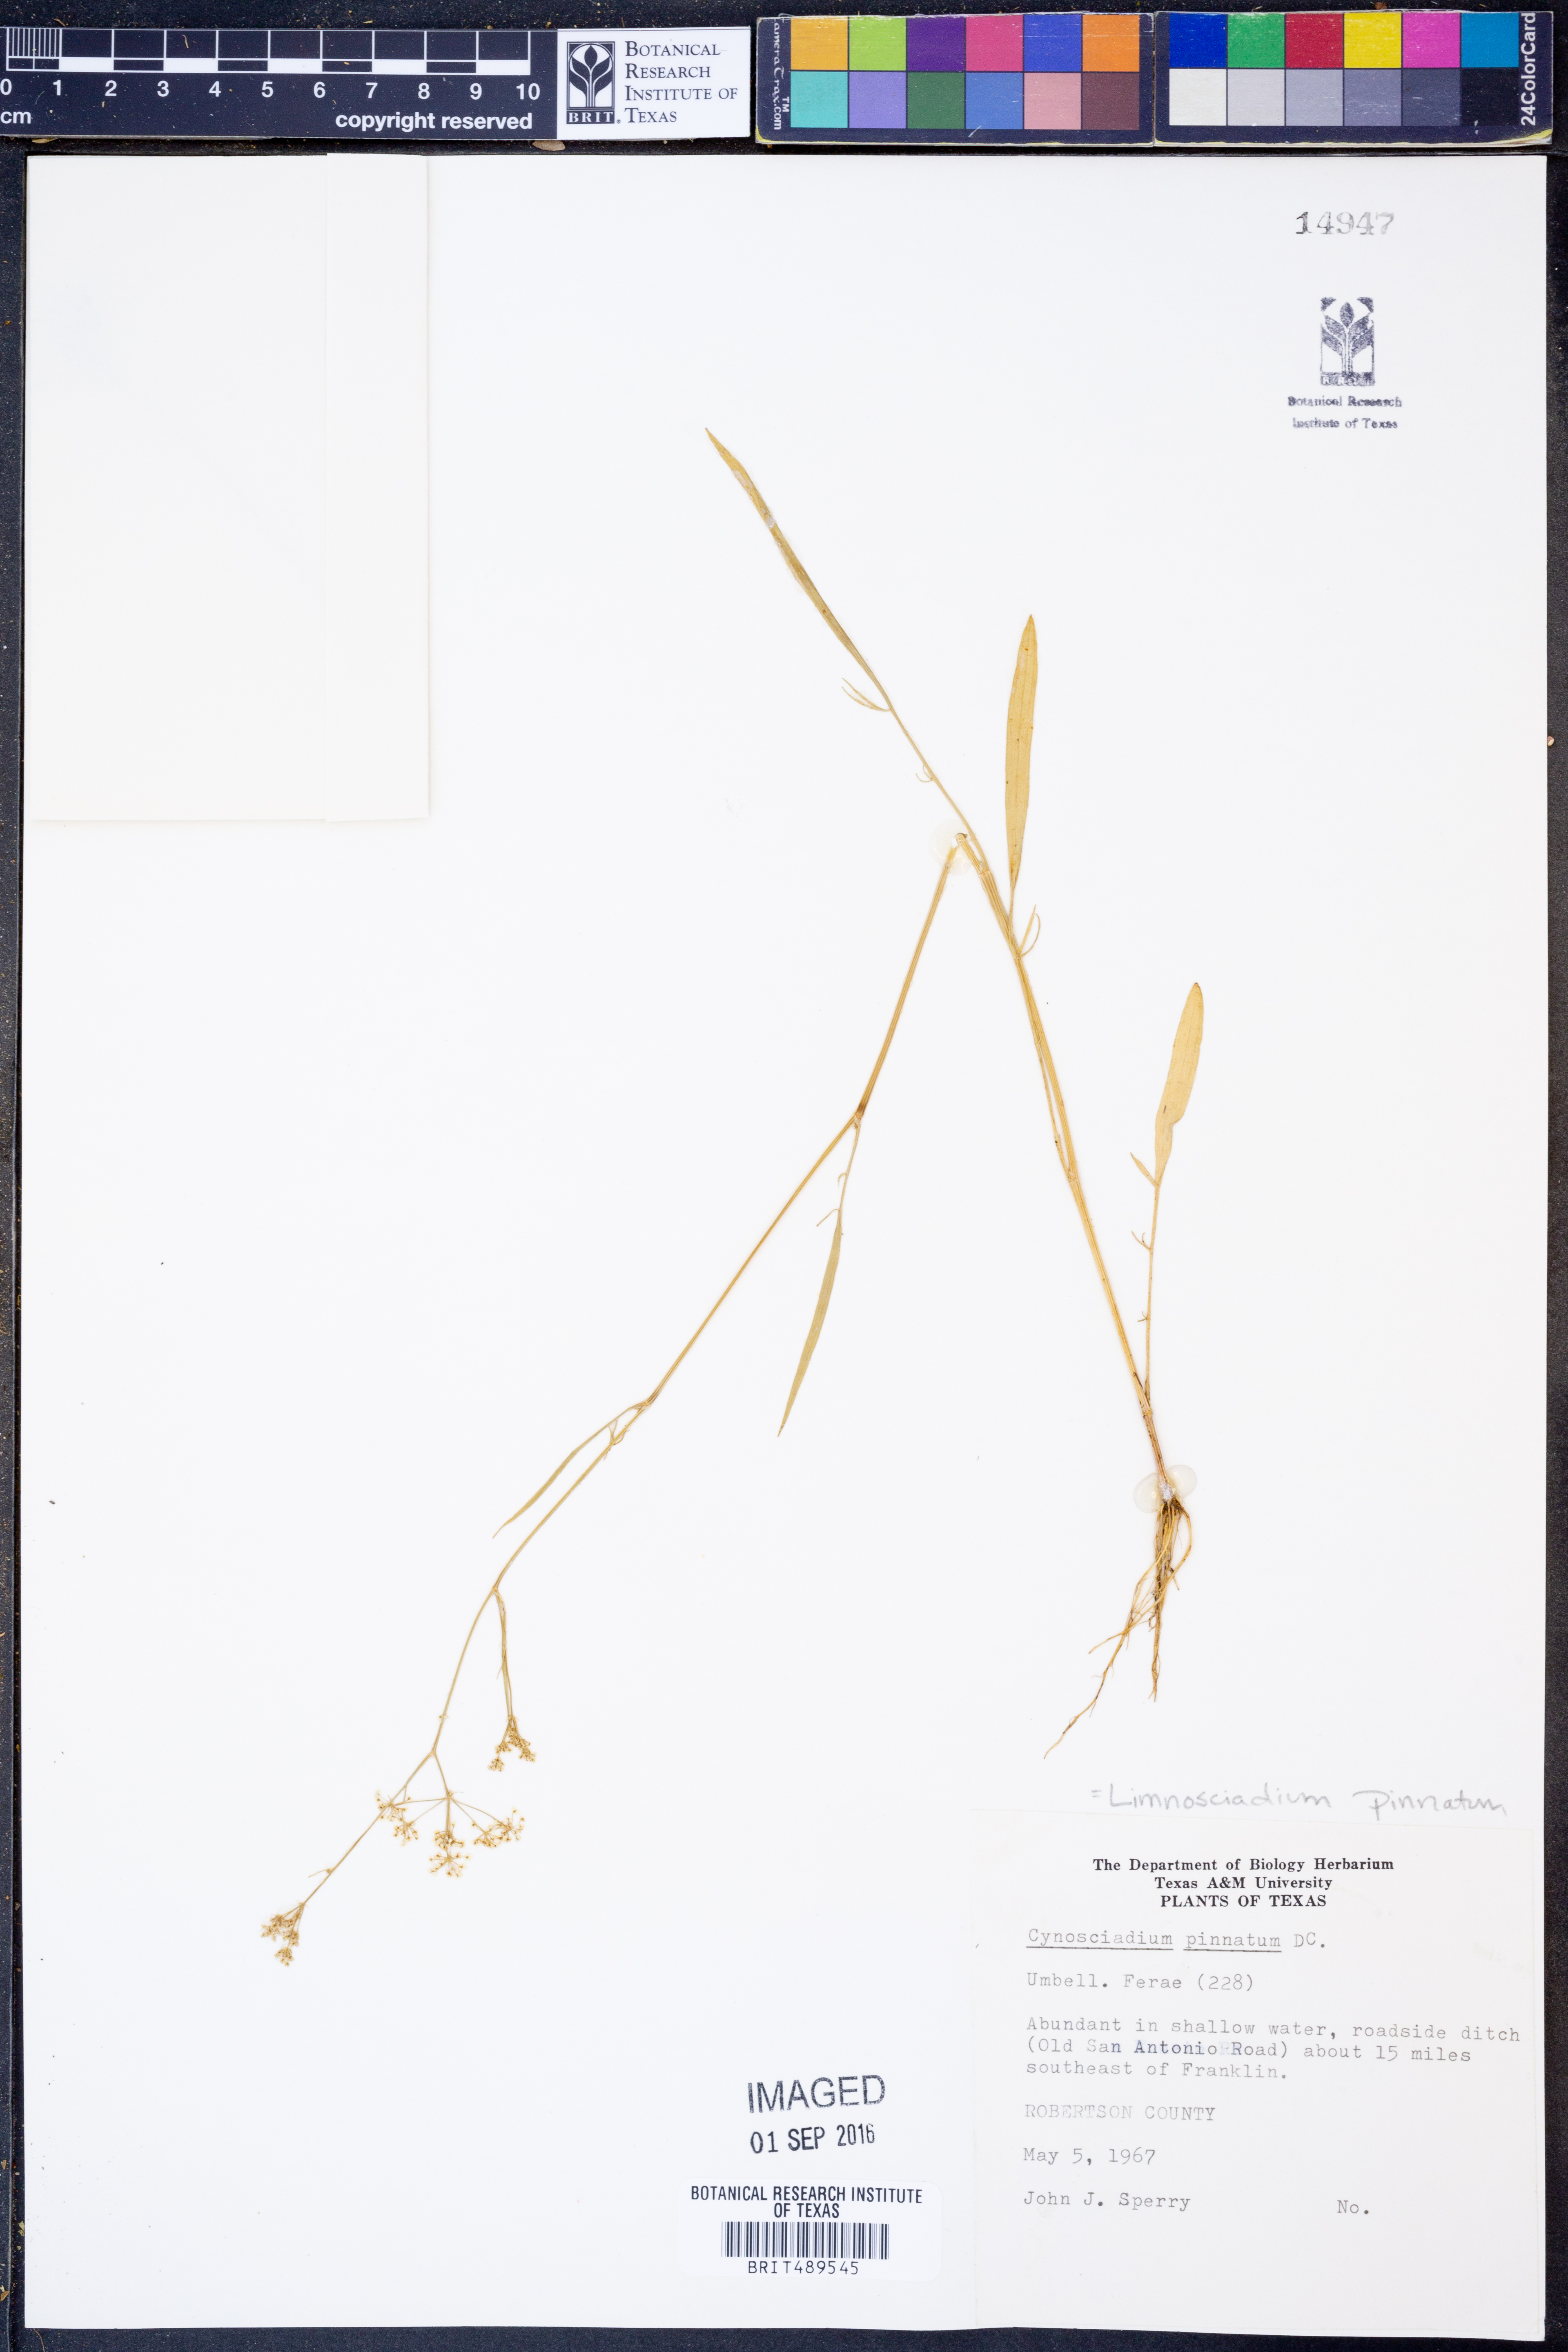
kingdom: Plantae
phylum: Tracheophyta
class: Magnoliopsida
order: Apiales
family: Apiaceae
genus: Limnosciadium
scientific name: Limnosciadium pinnatum
